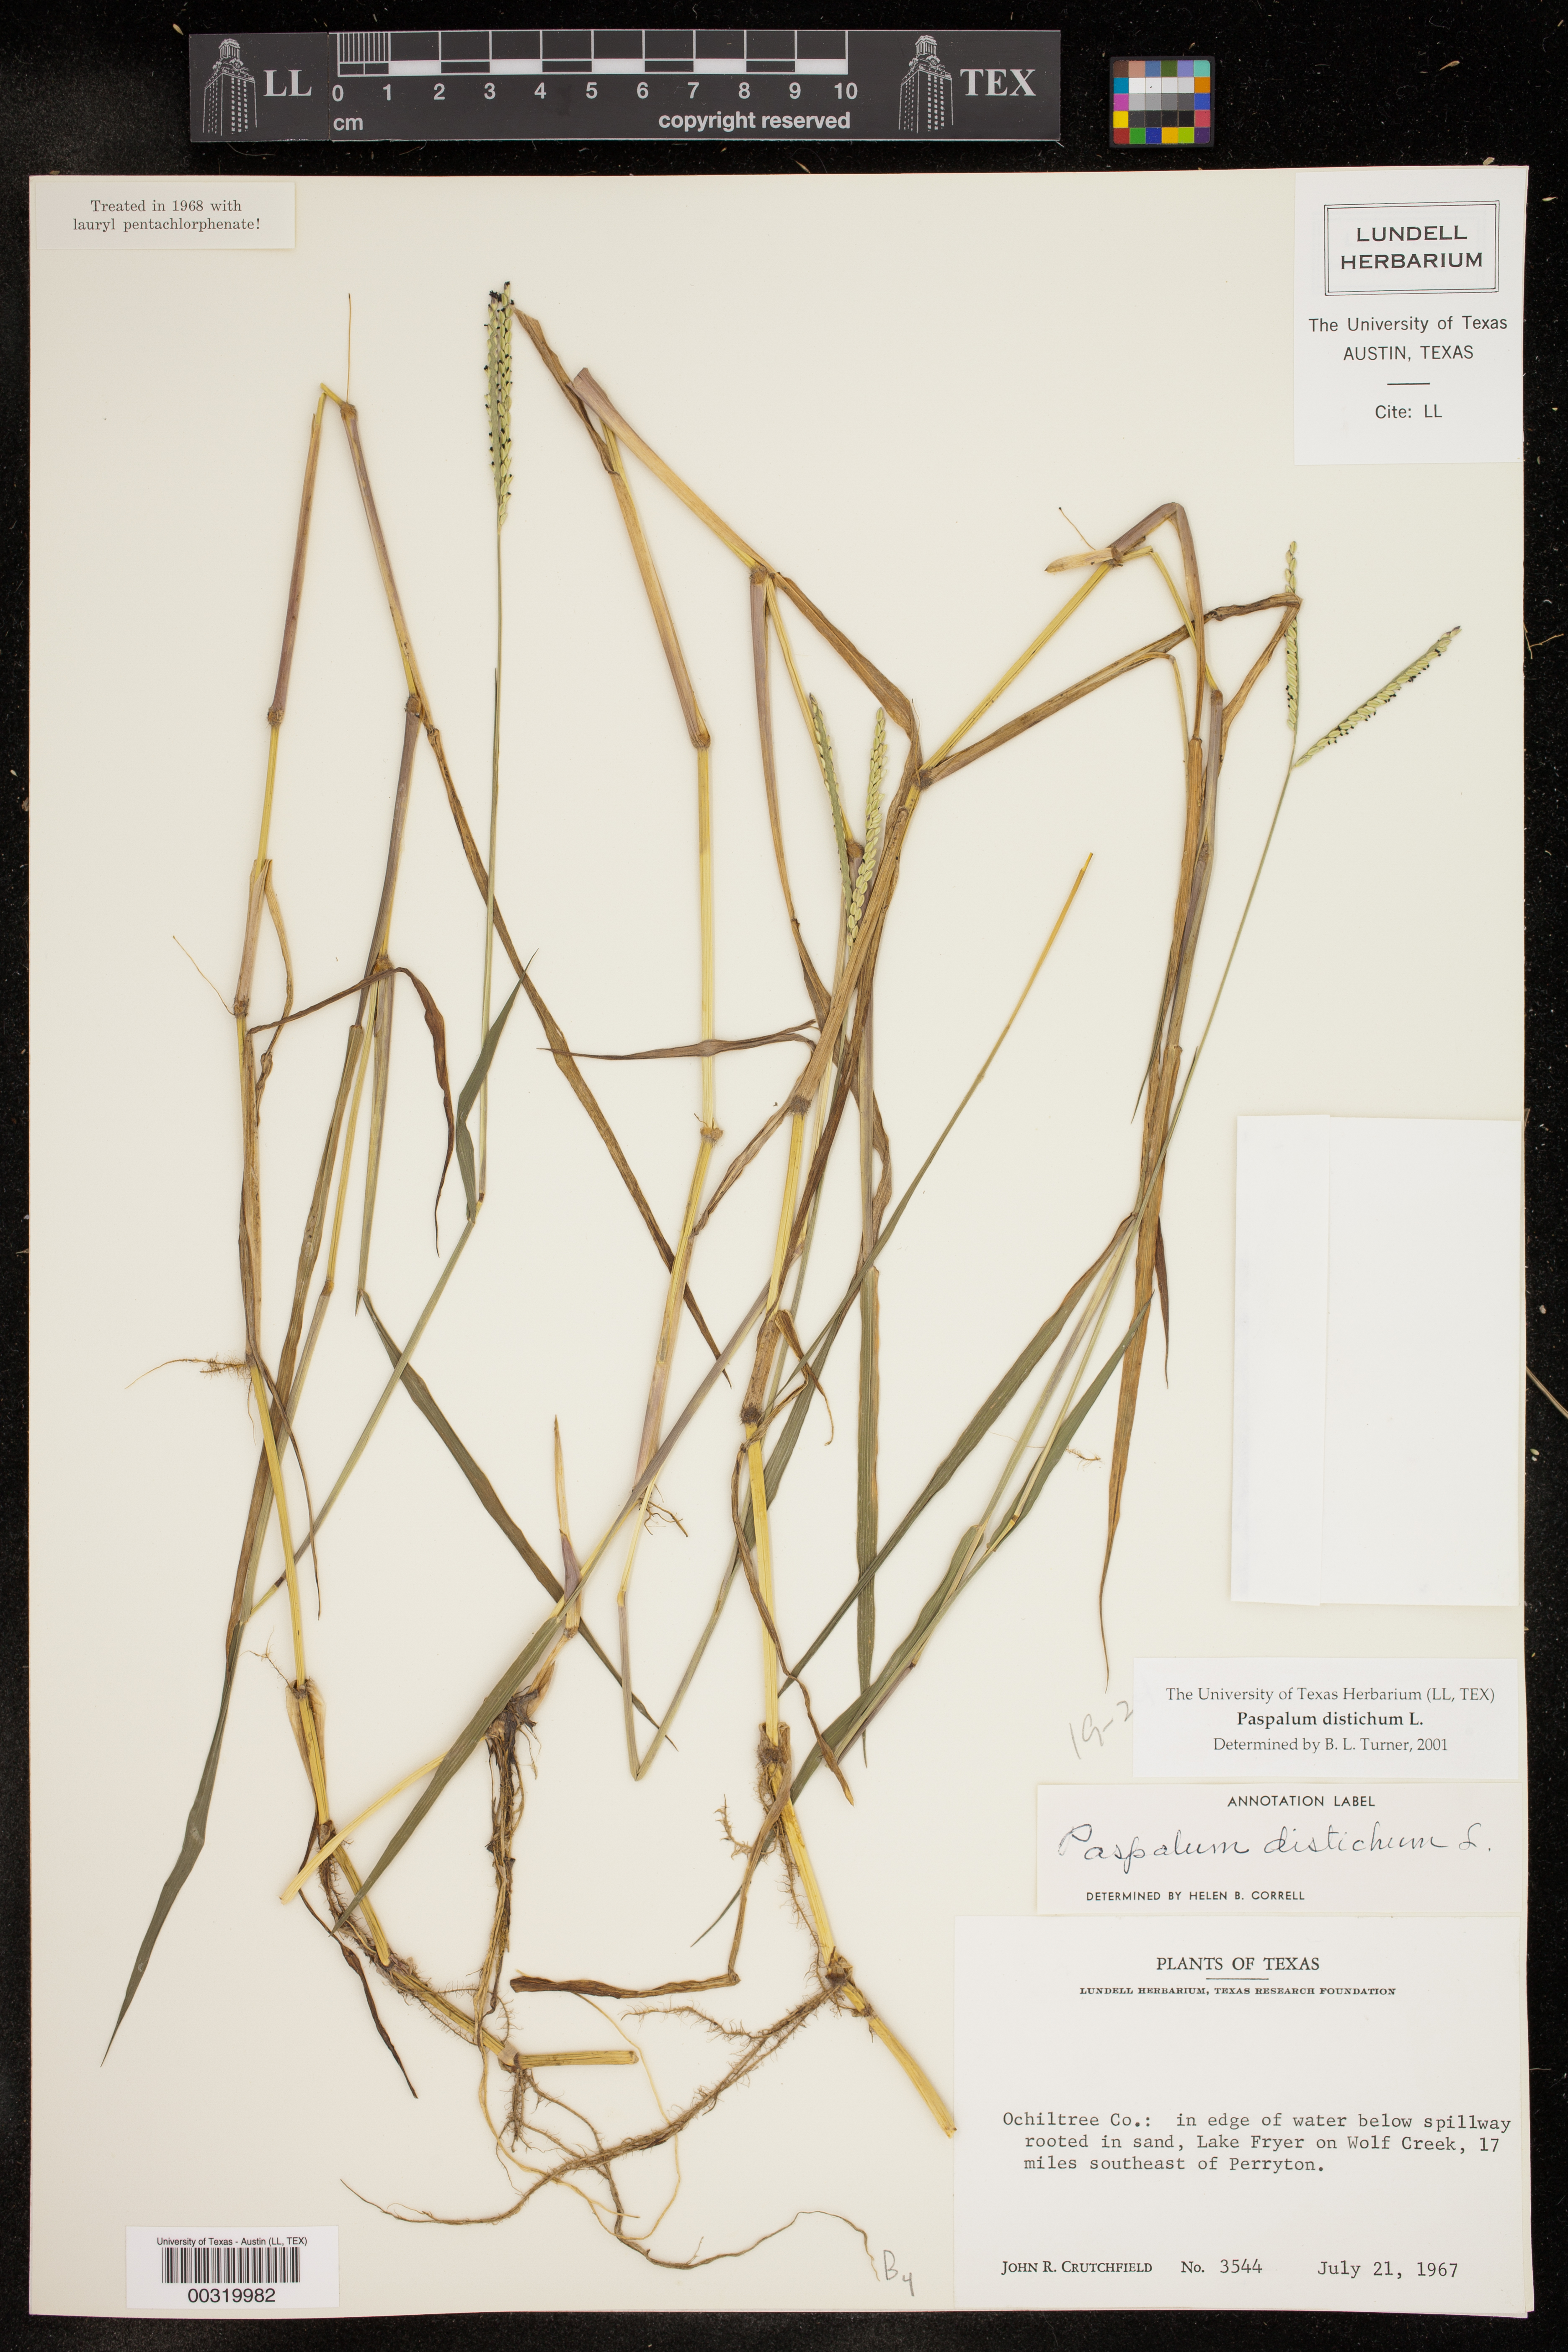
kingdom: Plantae
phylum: Tracheophyta
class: Liliopsida
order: Poales
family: Poaceae
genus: Paspalum
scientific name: Paspalum distichum
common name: Knotgrass
